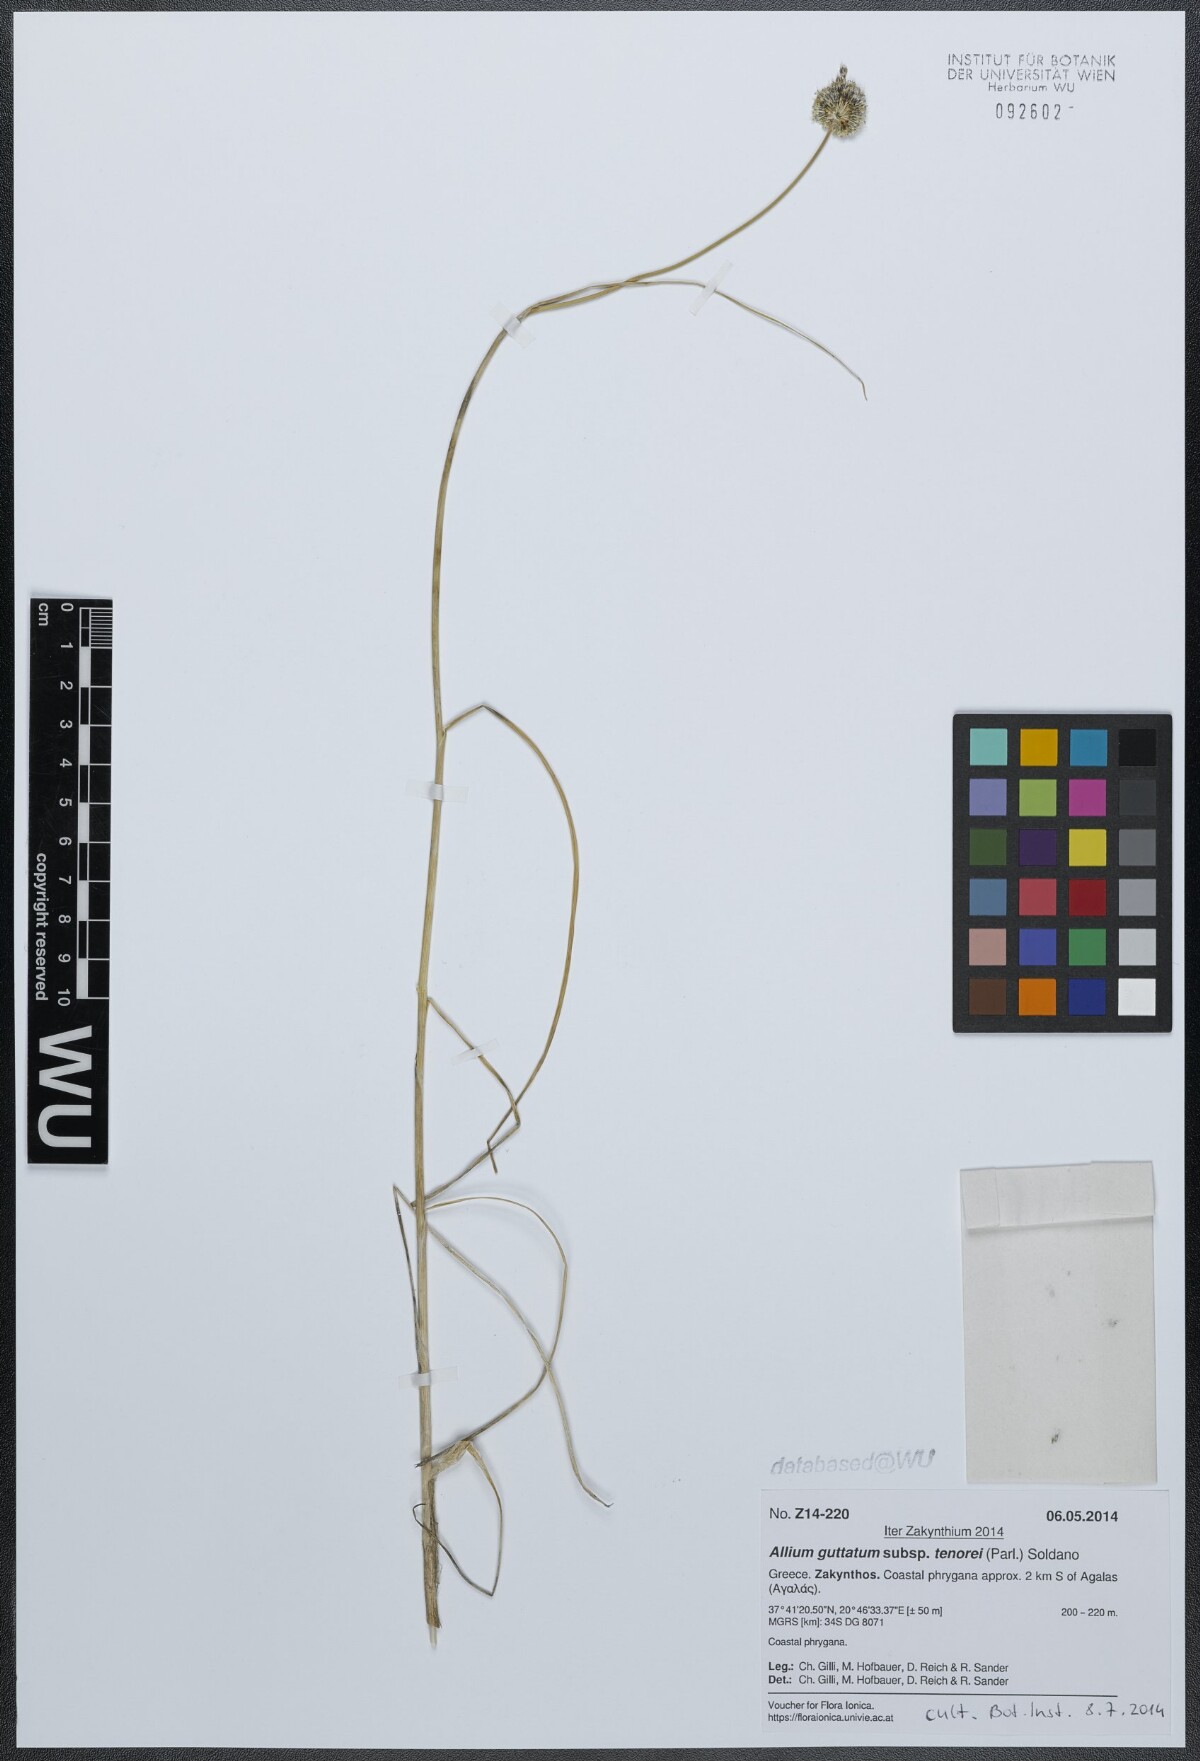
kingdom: Plantae
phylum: Tracheophyta
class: Liliopsida
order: Asparagales
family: Amaryllidaceae
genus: Allium
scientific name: Allium sardoum
